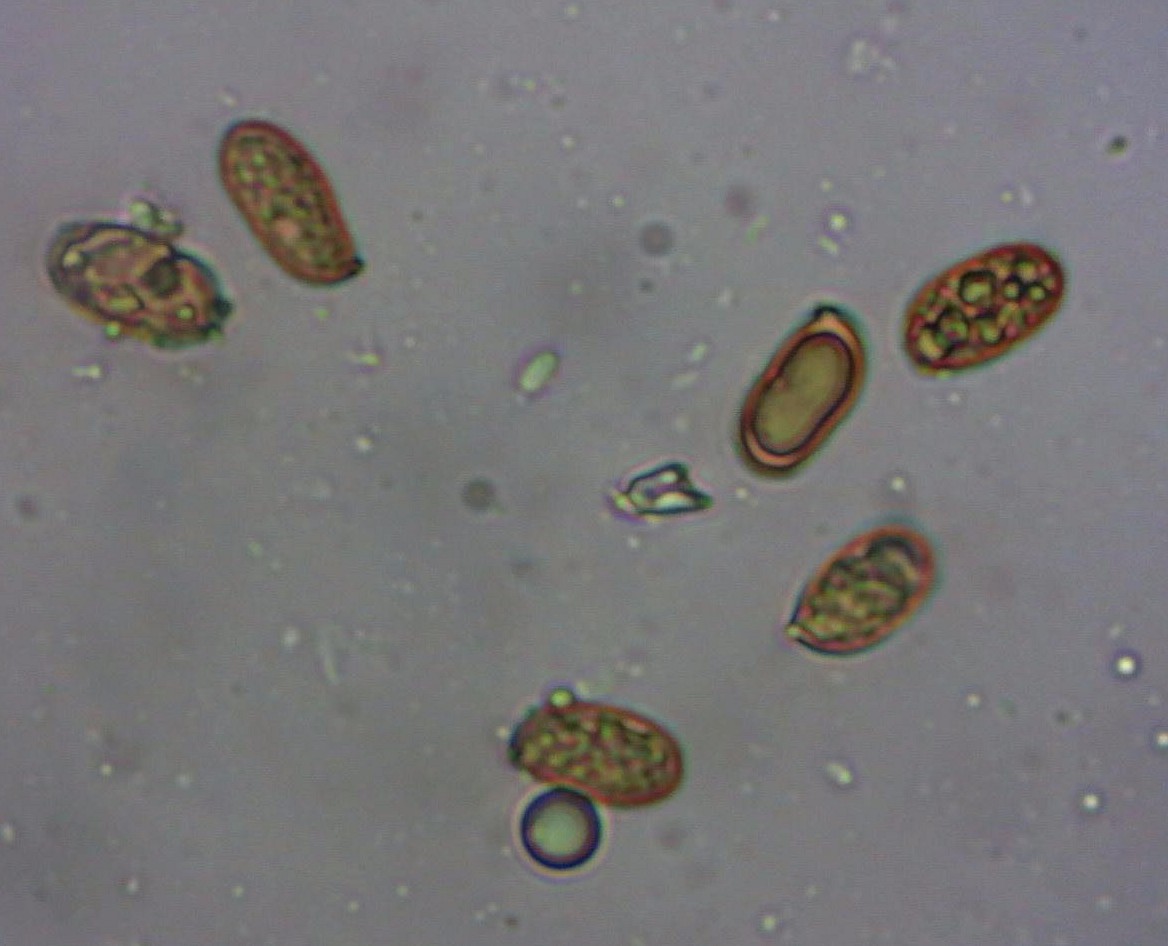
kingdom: Fungi
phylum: Basidiomycota
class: Agaricomycetes
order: Agaricales
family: Inocybaceae
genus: Inocybe
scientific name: Inocybe lacera
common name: laset trævlhat
